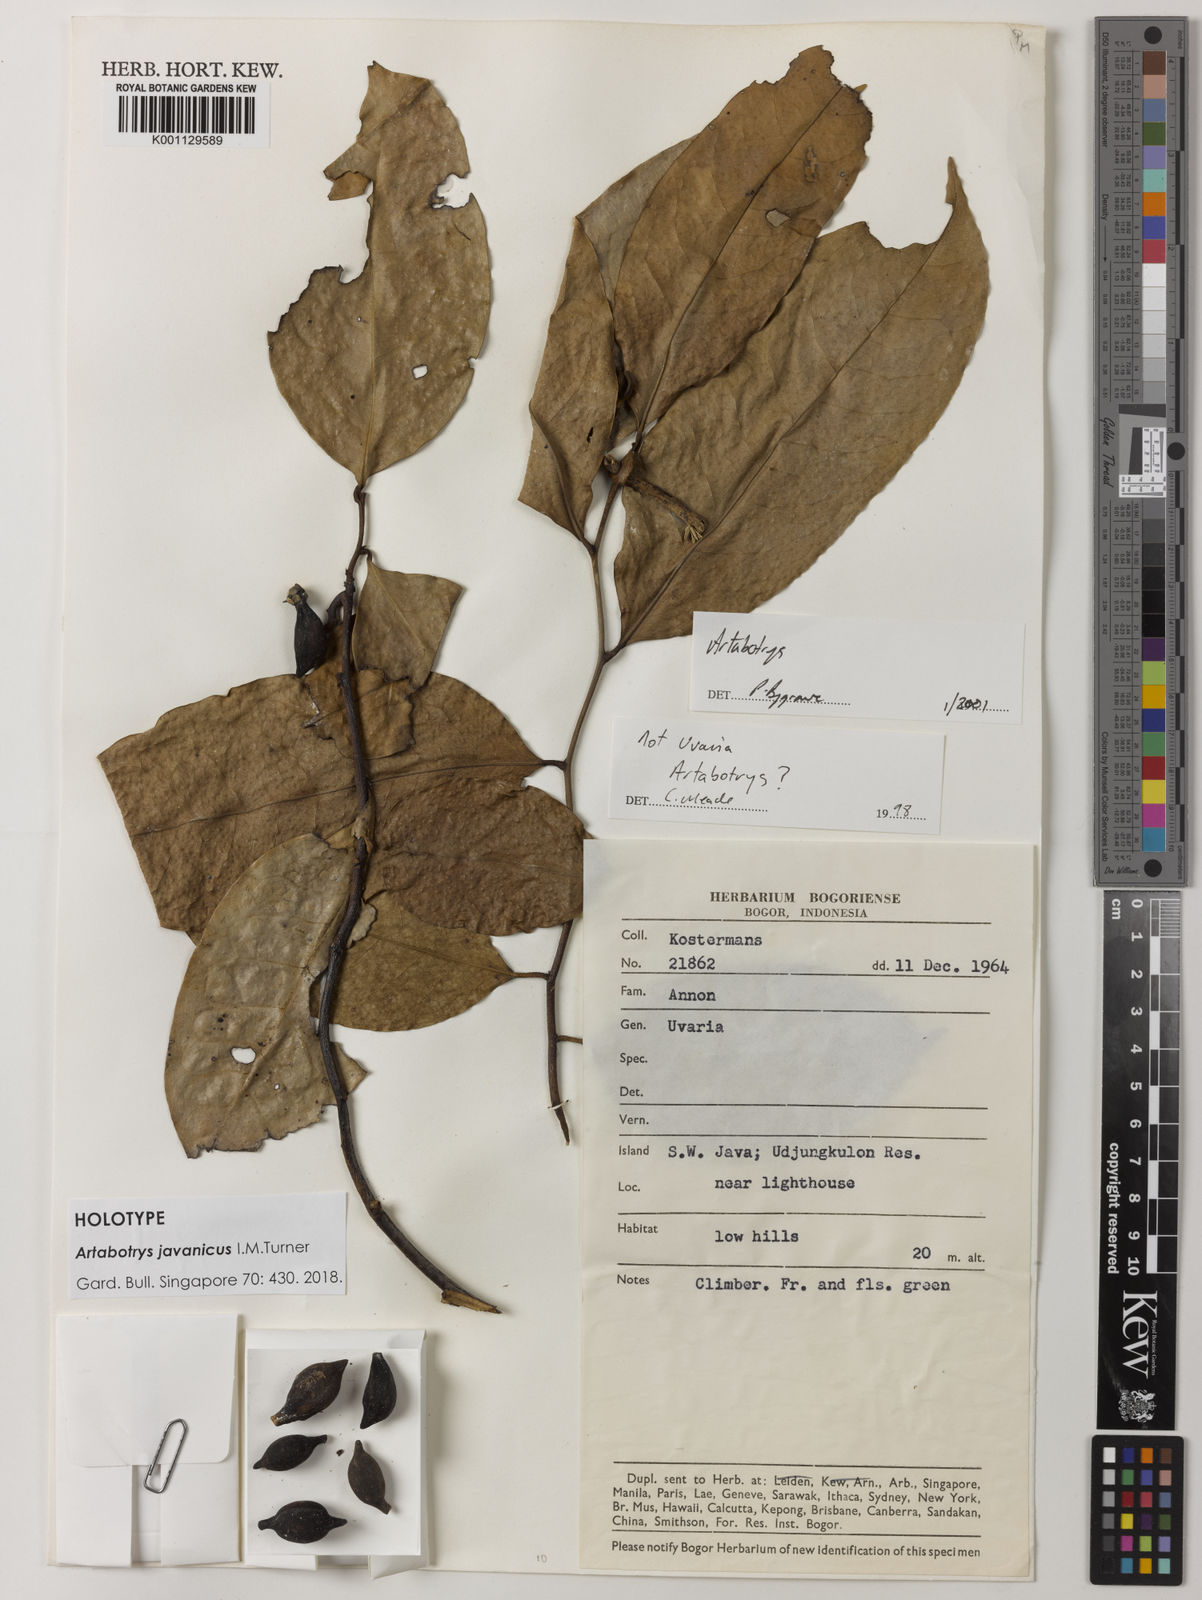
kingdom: Plantae
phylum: Tracheophyta
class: Magnoliopsida
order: Magnoliales
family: Annonaceae
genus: Artabotrys
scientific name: Artabotrys javanicus
